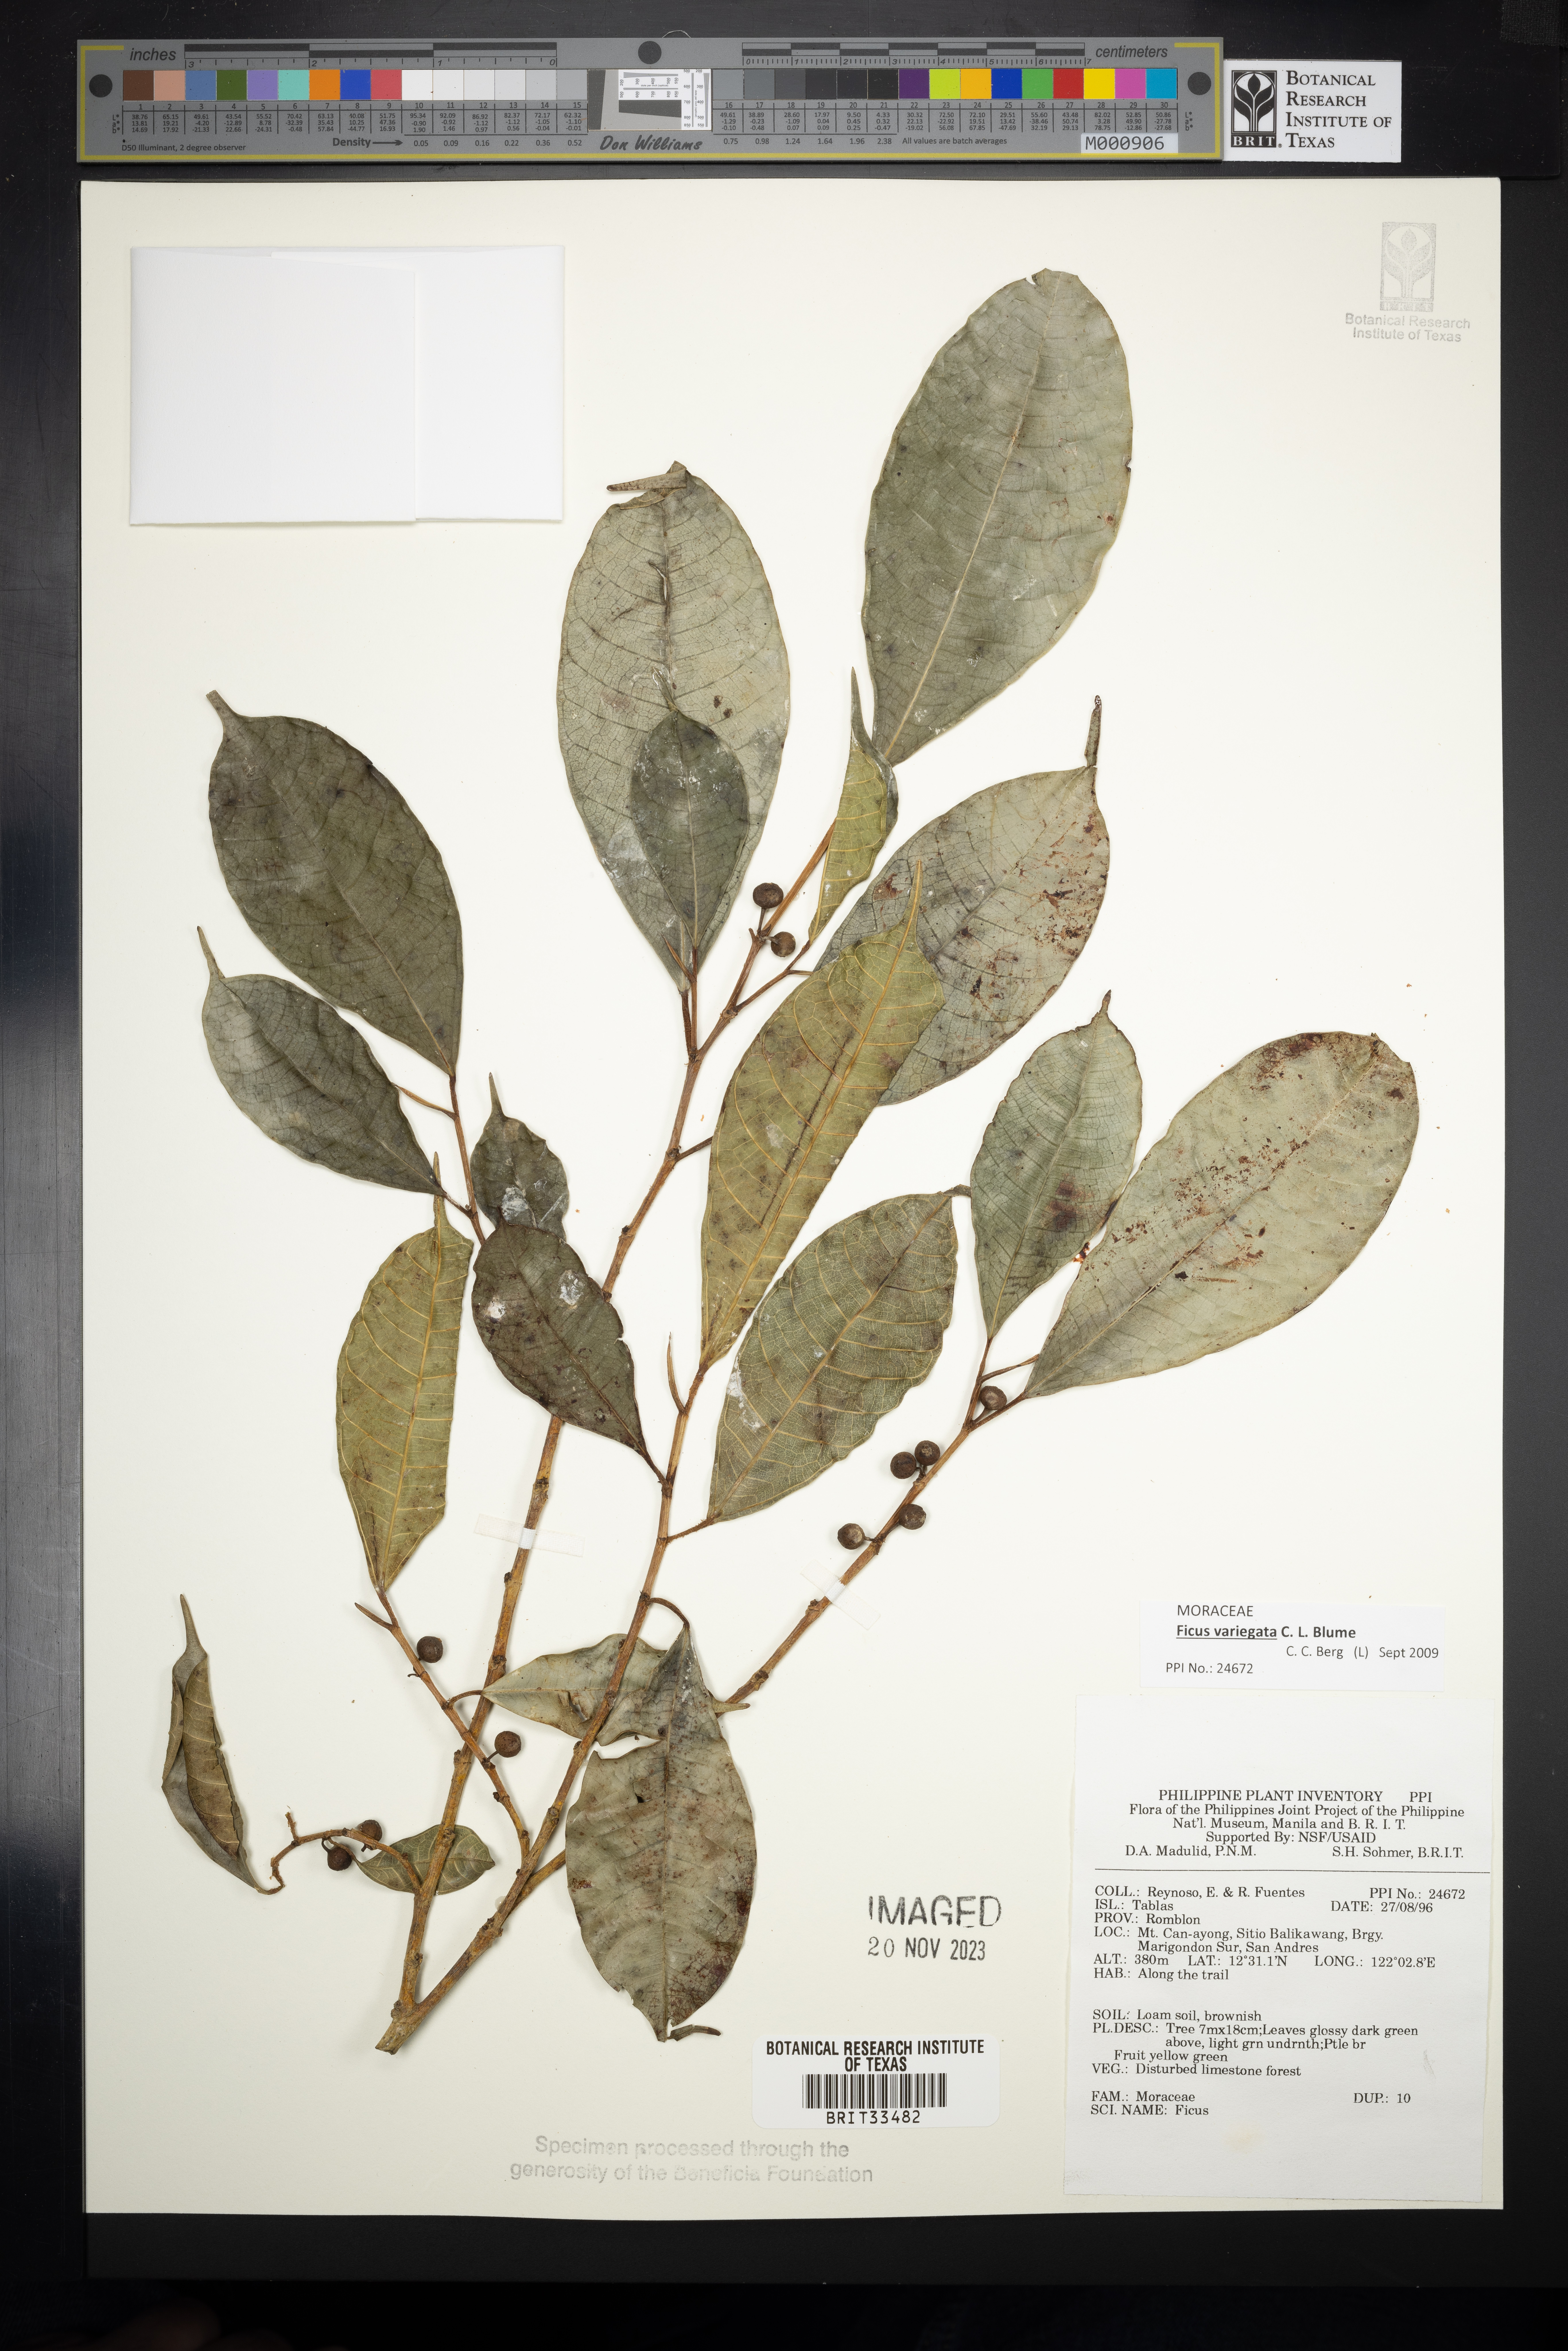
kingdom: Plantae
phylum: Tracheophyta
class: Magnoliopsida
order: Rosales
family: Moraceae
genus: Ficus
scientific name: Ficus
